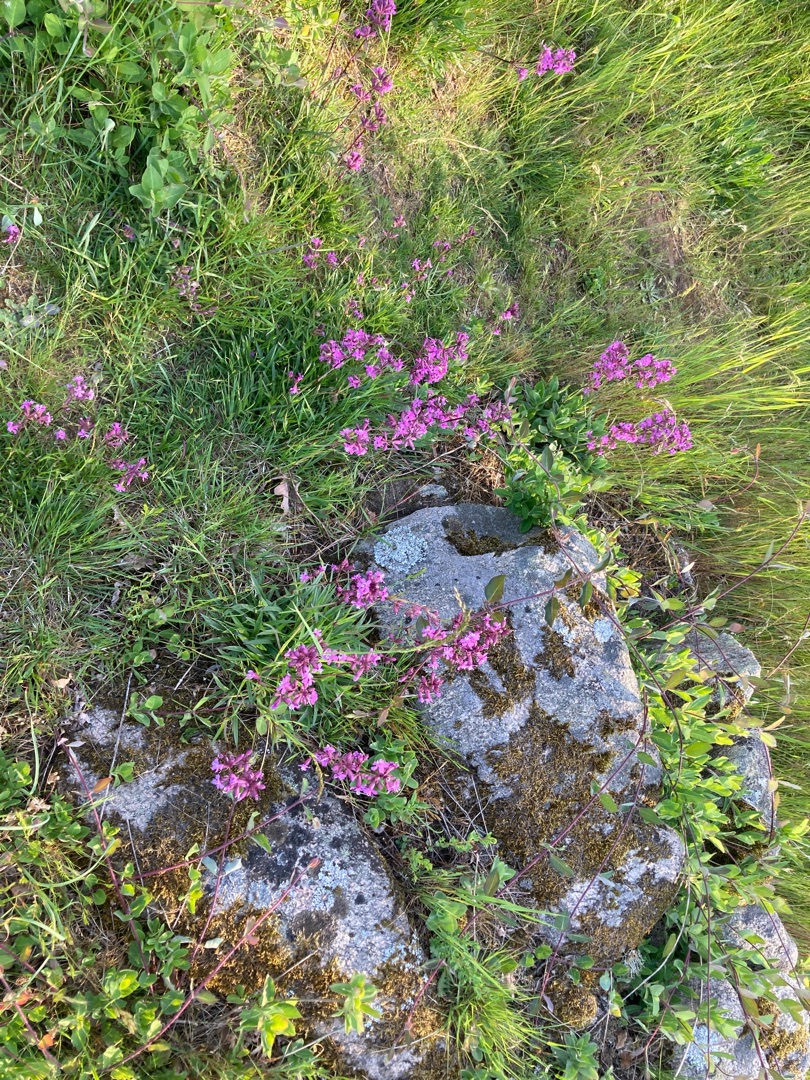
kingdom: Plantae
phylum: Tracheophyta
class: Magnoliopsida
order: Caryophyllales
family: Caryophyllaceae
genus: Viscaria
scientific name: Viscaria vulgaris
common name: Tjærenellike
